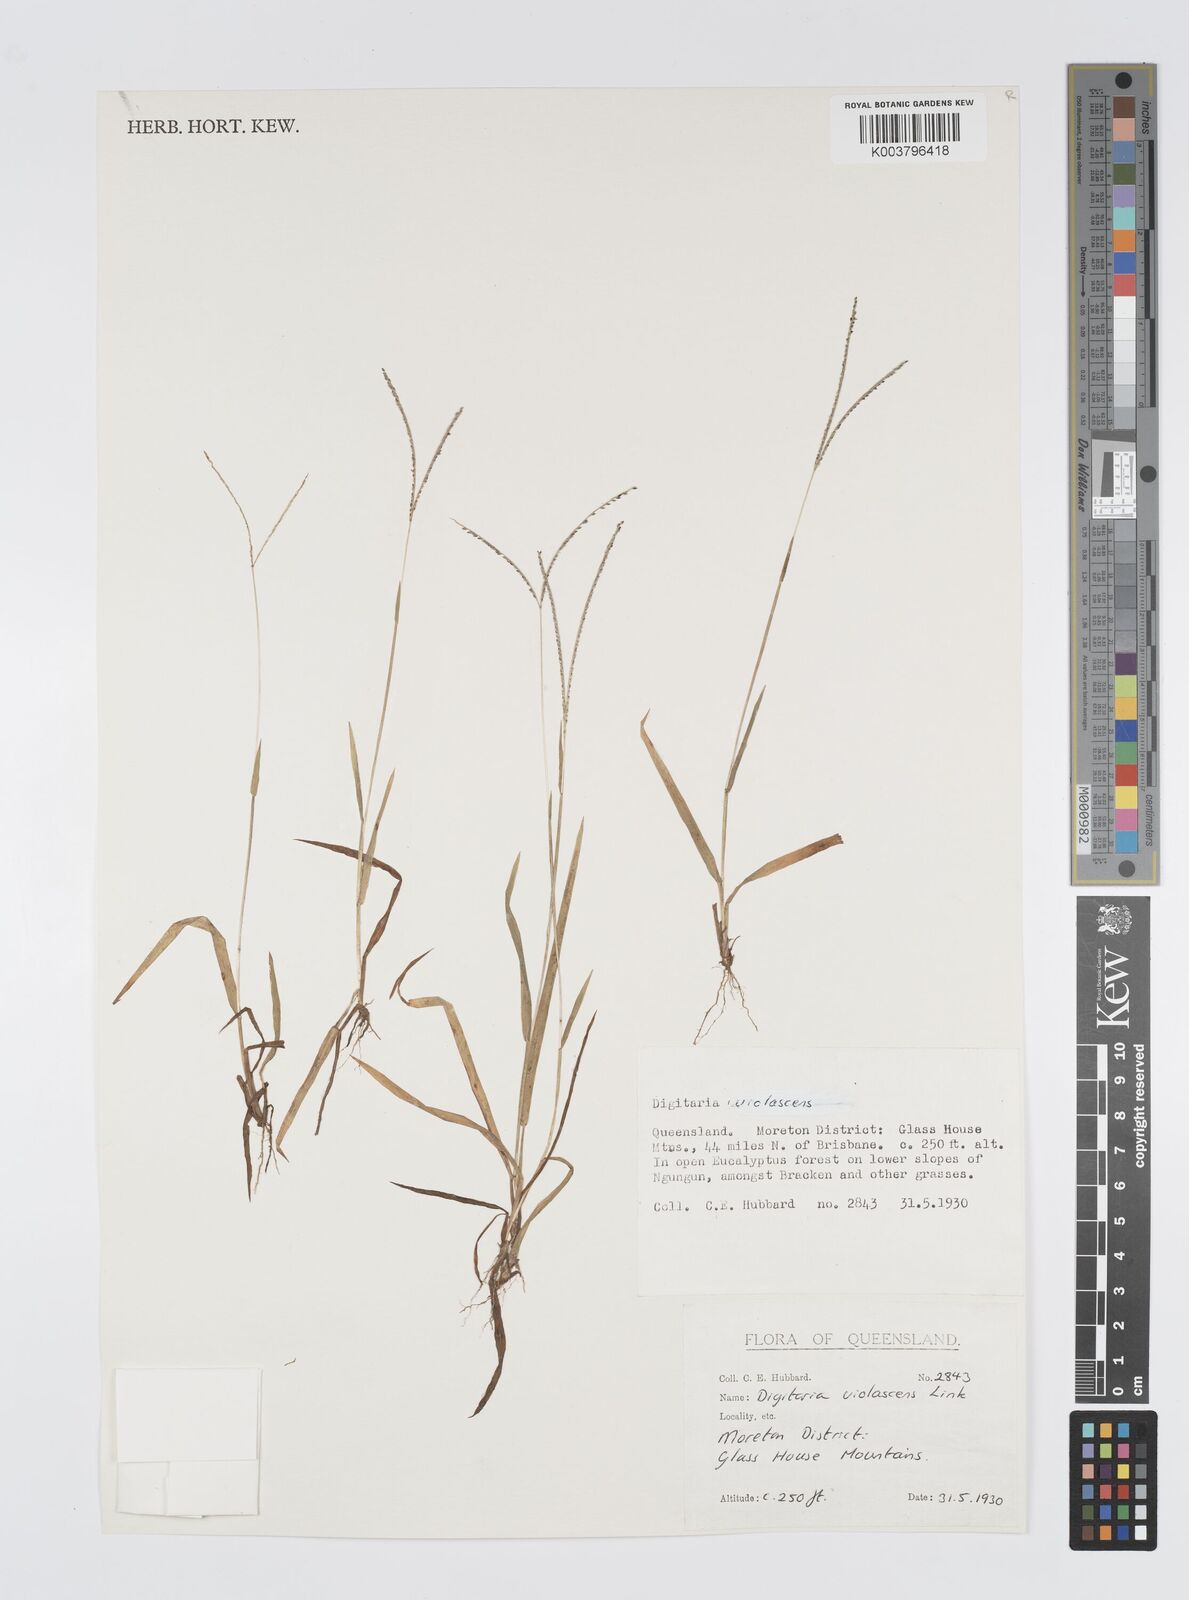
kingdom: Plantae
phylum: Tracheophyta
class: Liliopsida
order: Poales
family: Poaceae
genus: Digitaria
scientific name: Digitaria violascens
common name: Violet crabgrass
